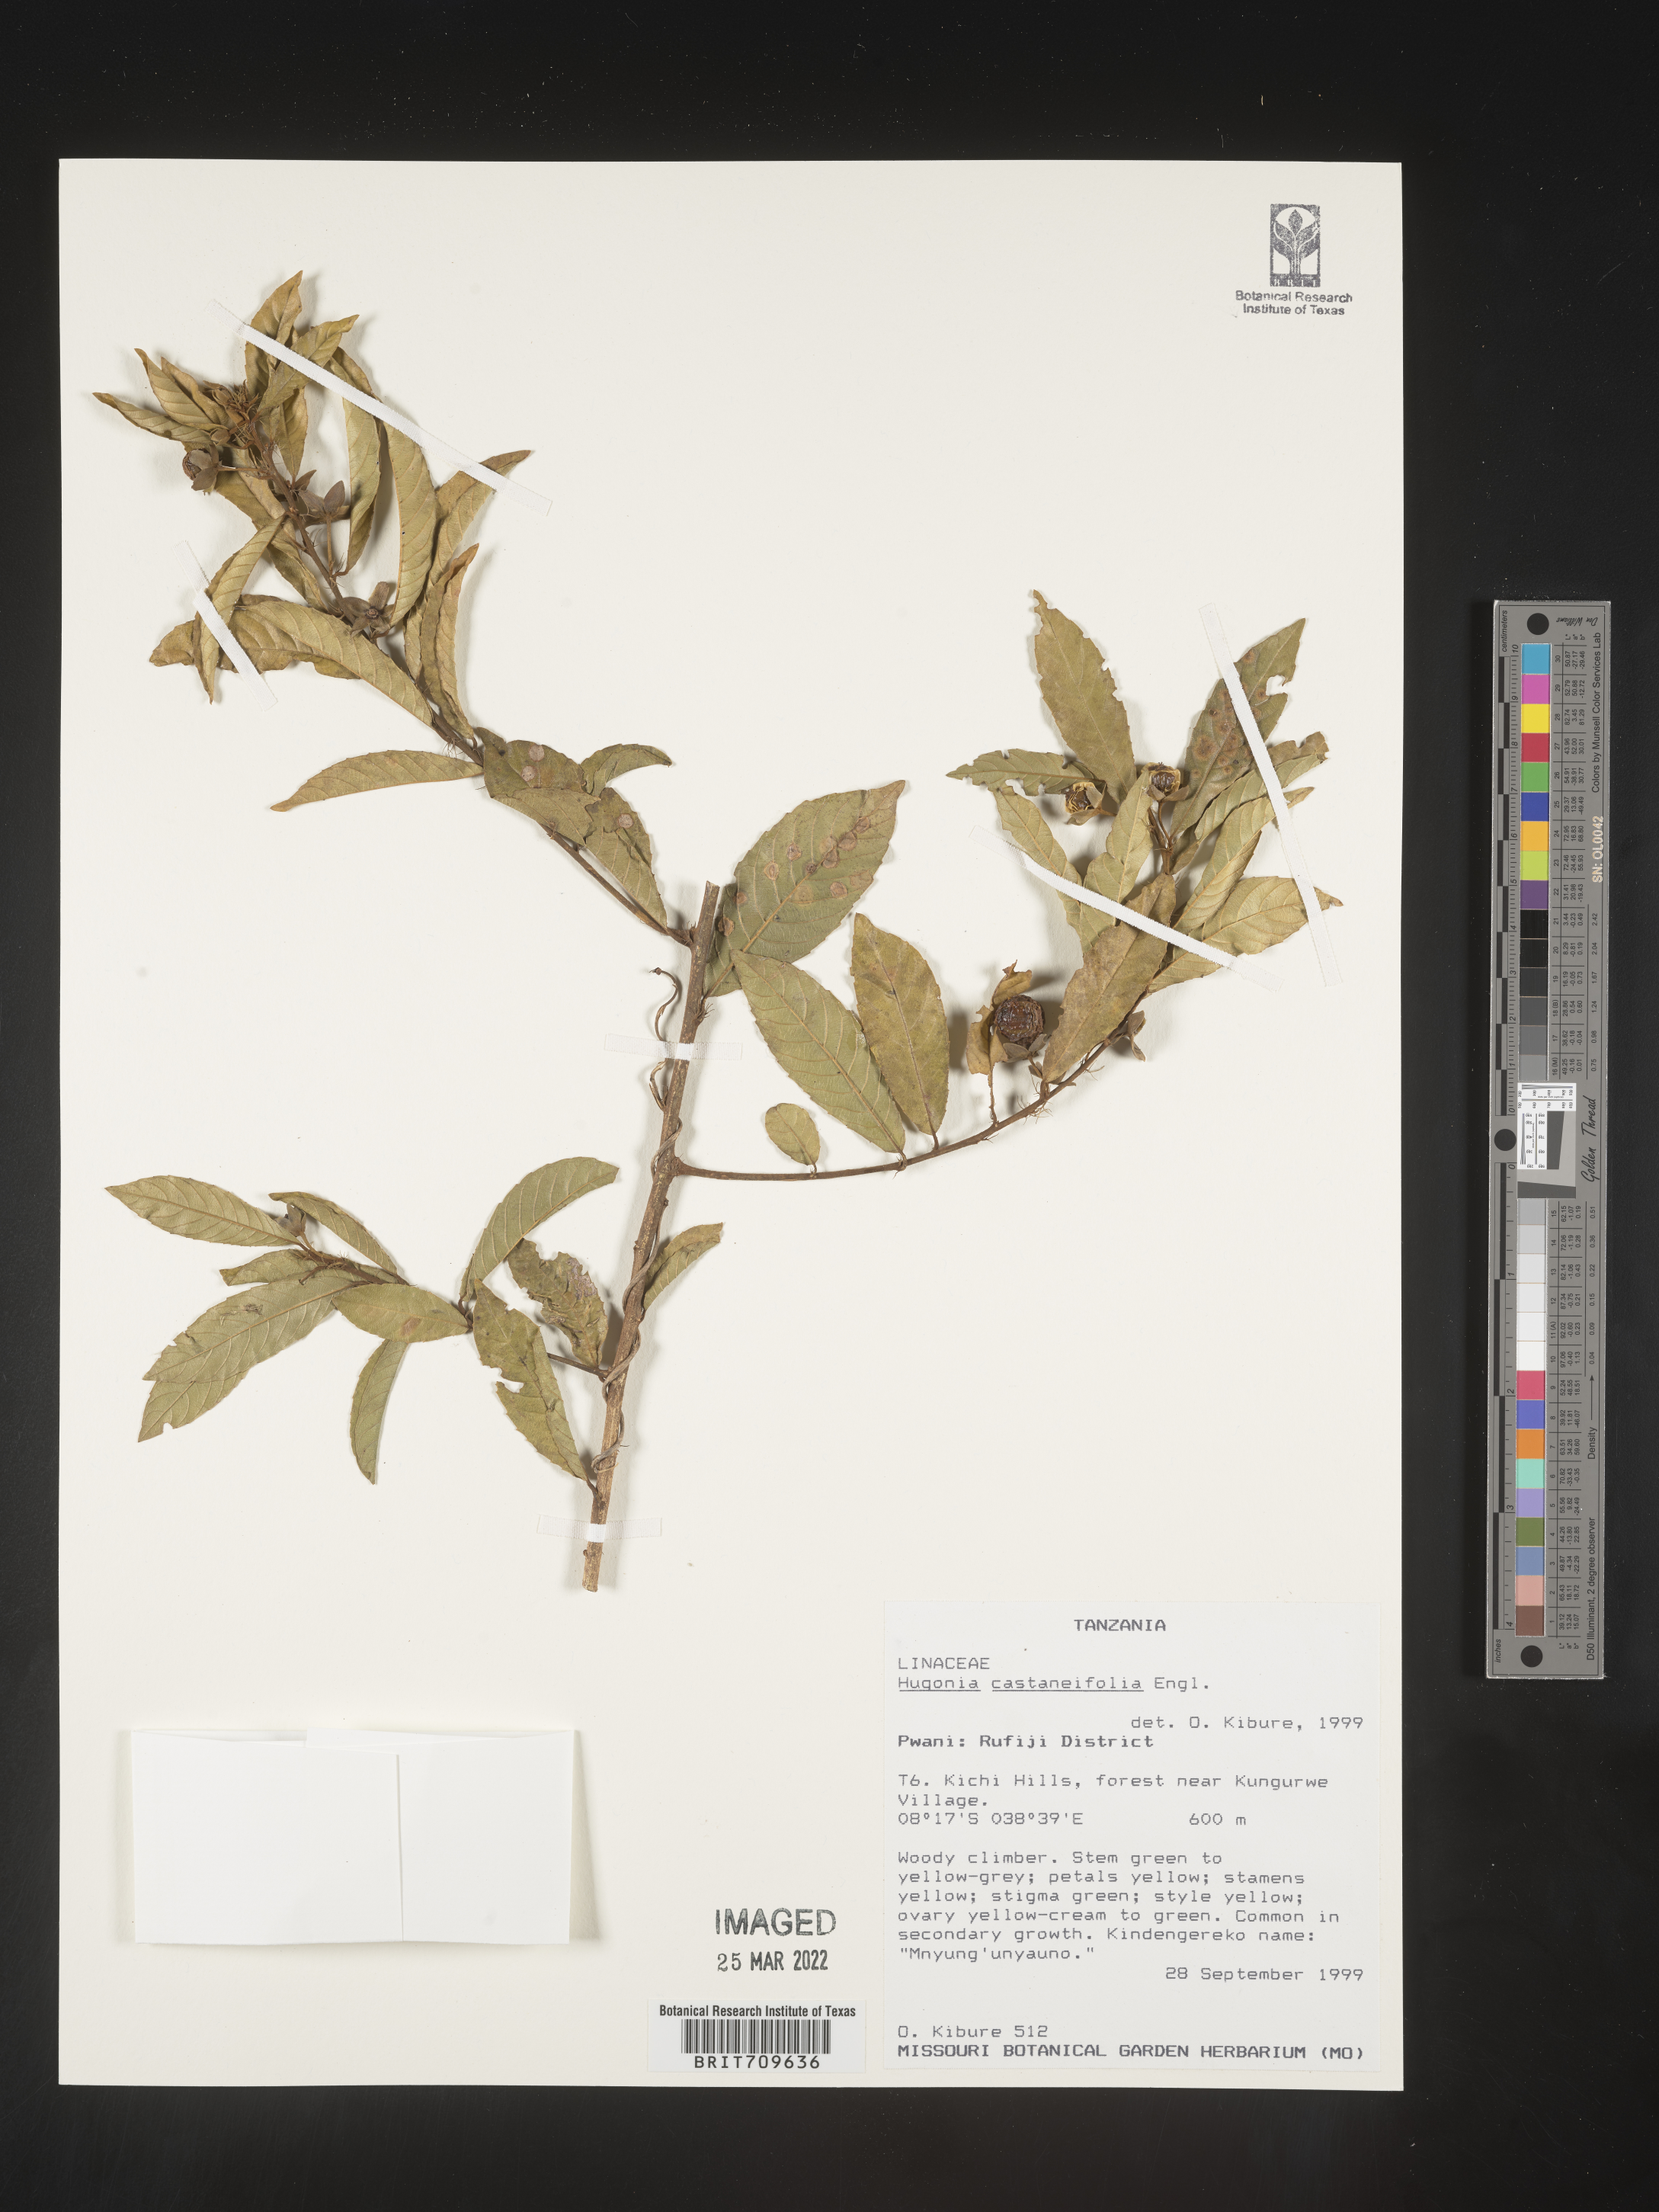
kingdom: Plantae
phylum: Tracheophyta
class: Magnoliopsida
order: Malpighiales
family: Linaceae
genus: Hugonia
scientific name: Hugonia
